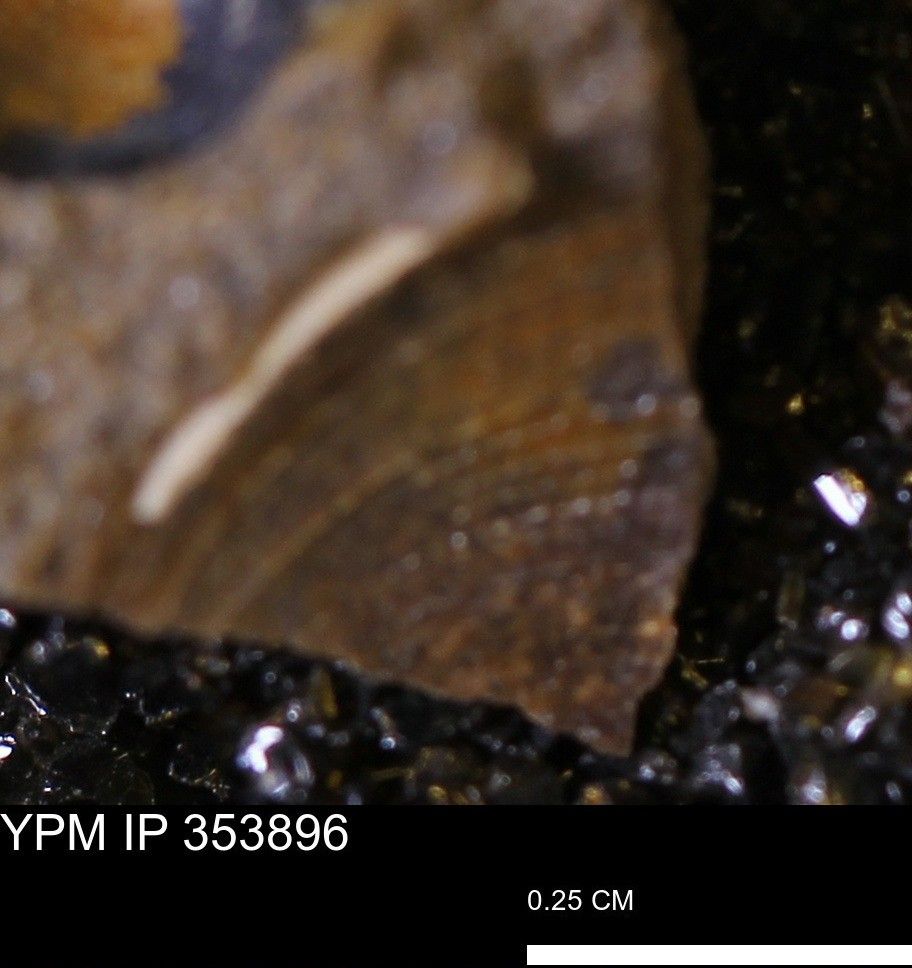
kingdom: Animalia
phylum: Mollusca
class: Bivalvia
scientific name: Bivalvia
